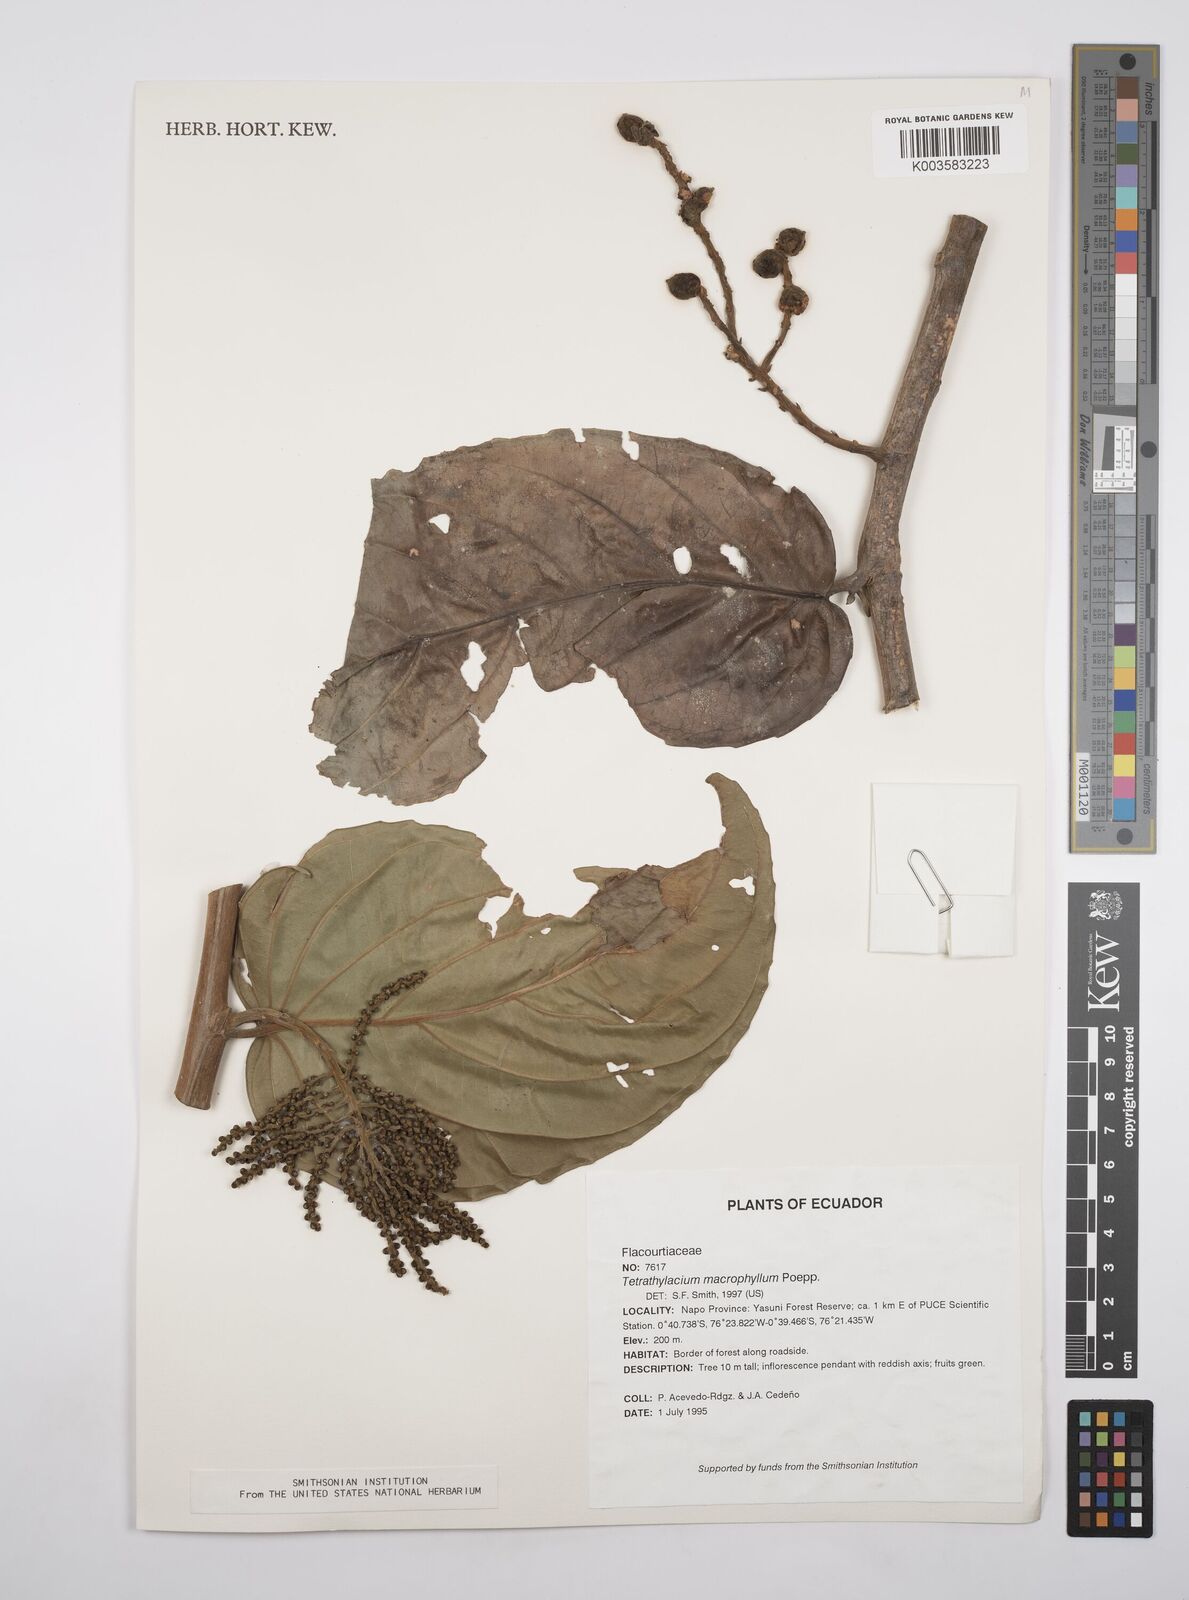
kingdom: Plantae
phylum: Tracheophyta
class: Magnoliopsida
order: Malpighiales
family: Salicaceae
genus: Tetrathylacium
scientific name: Tetrathylacium macrophyllum
